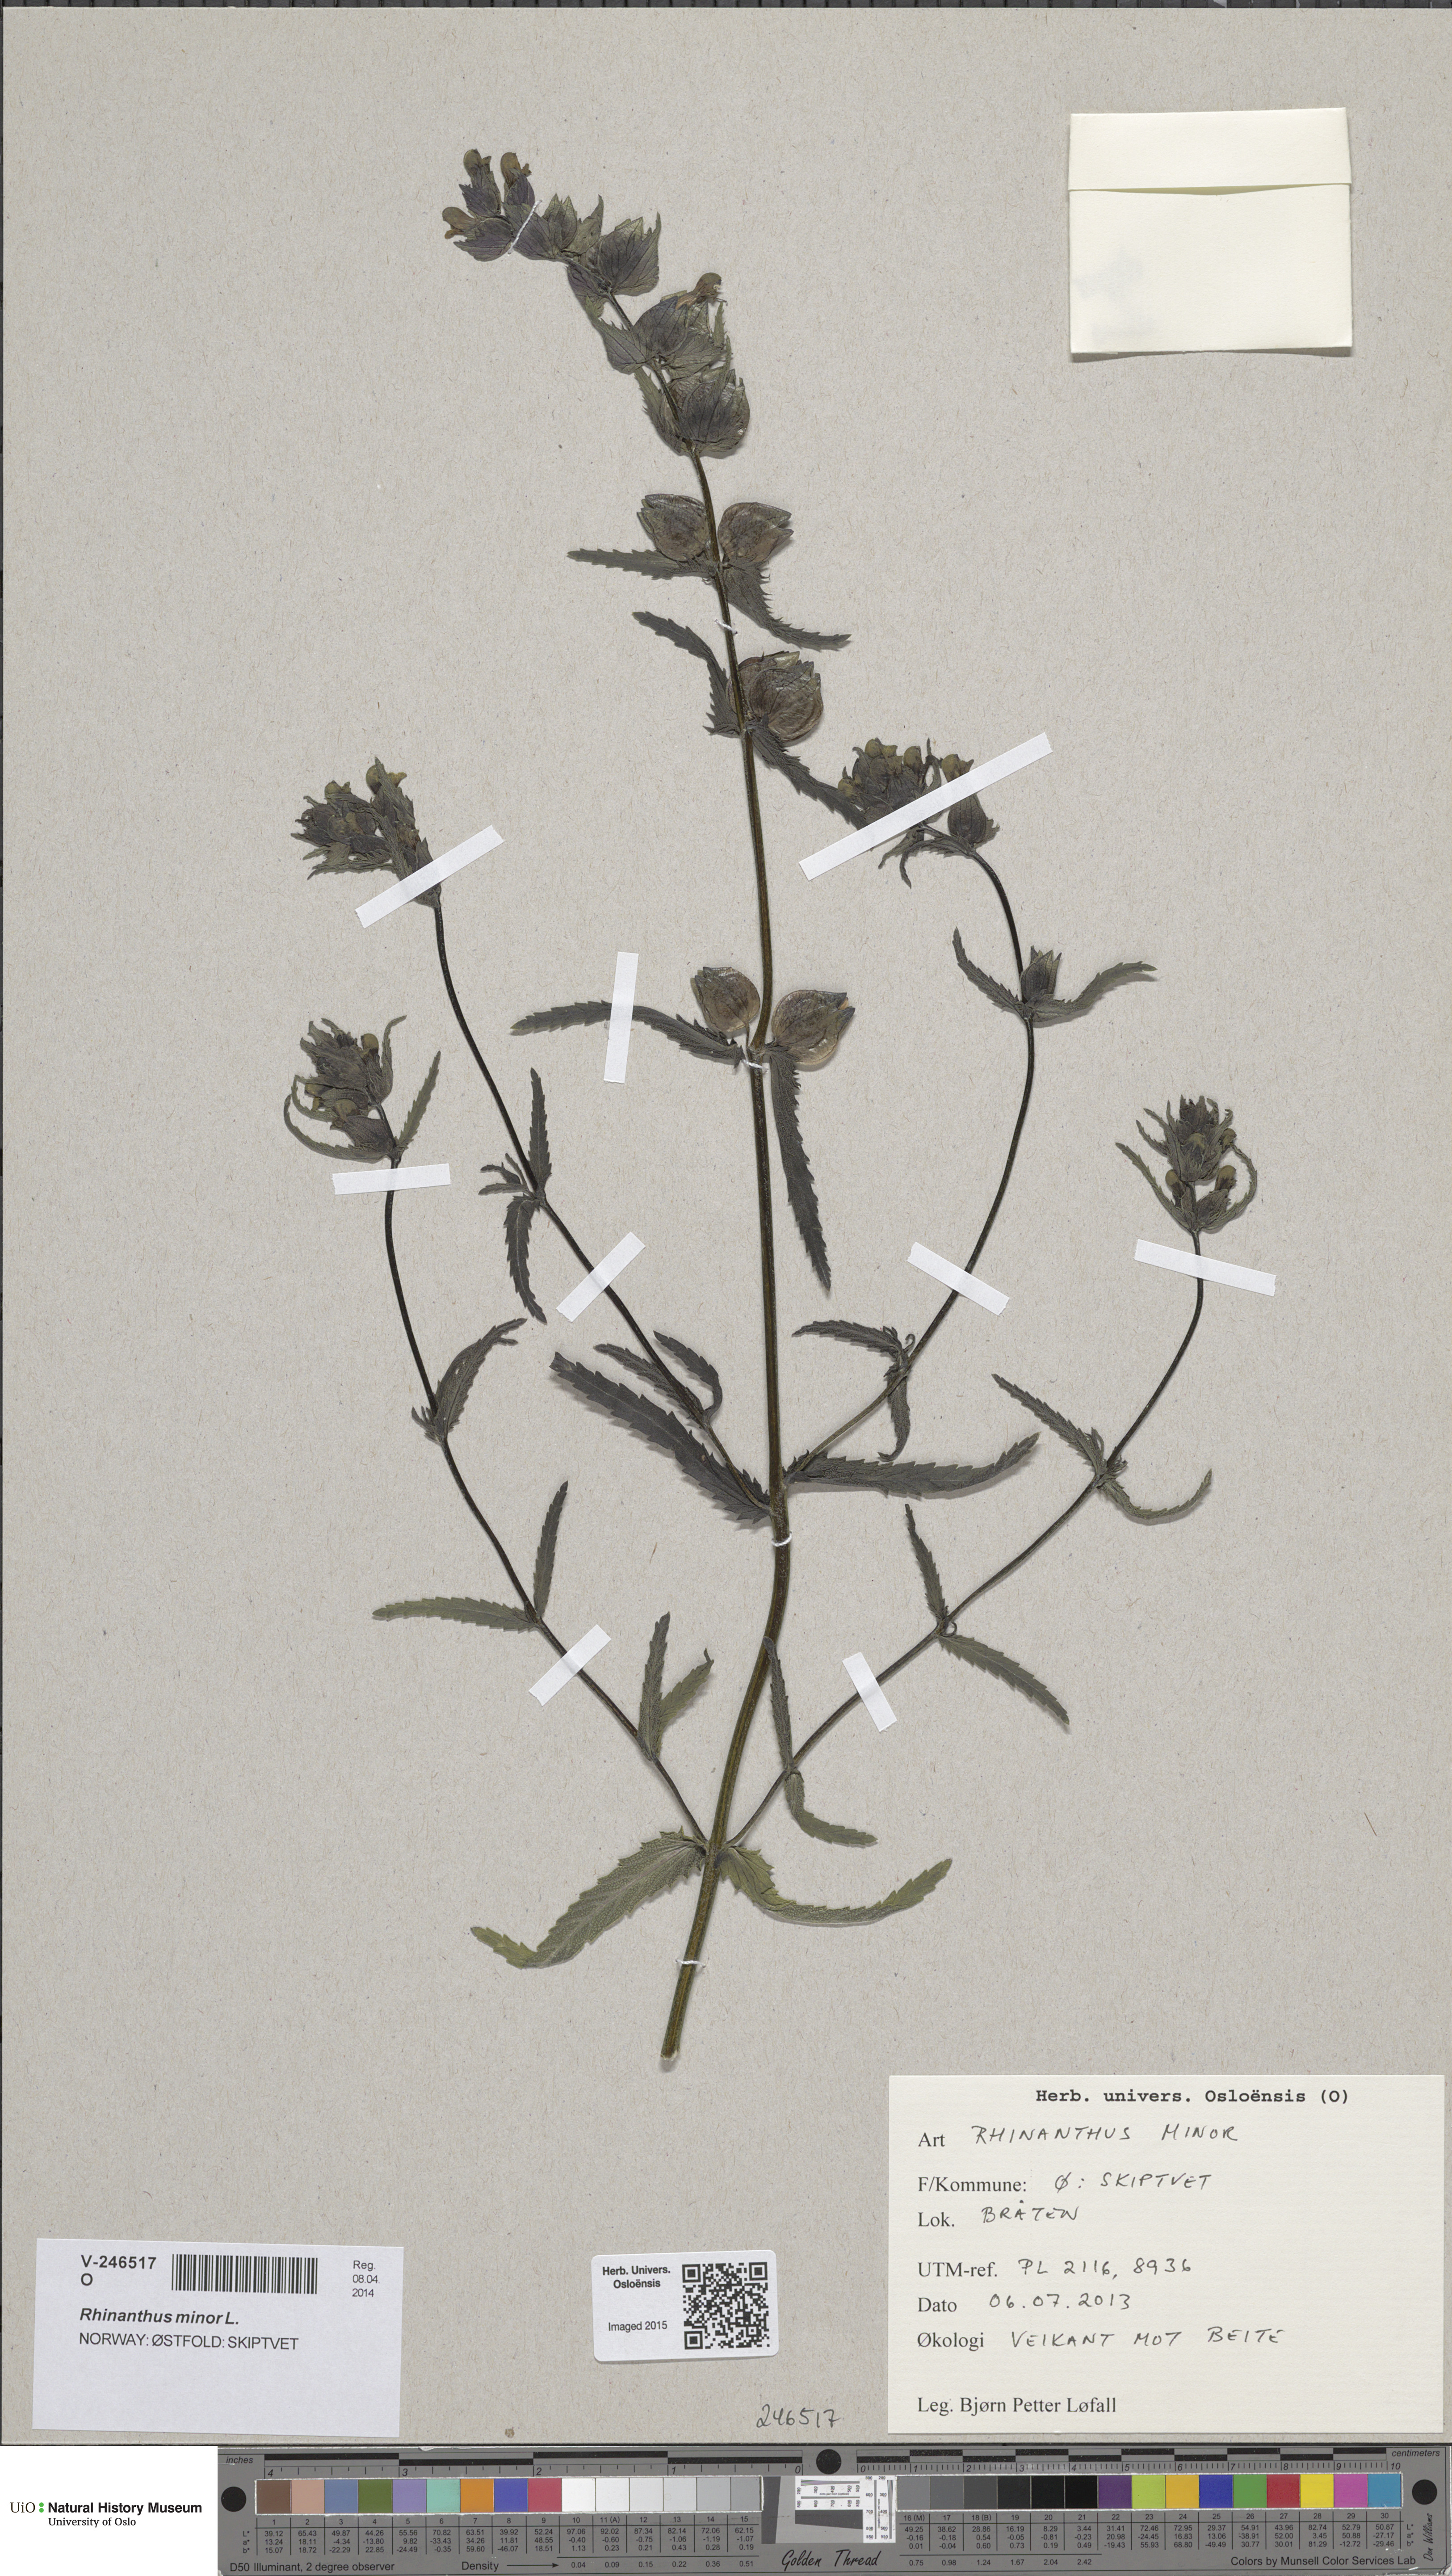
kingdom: Plantae
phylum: Tracheophyta
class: Magnoliopsida
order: Lamiales
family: Orobanchaceae
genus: Rhinanthus
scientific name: Rhinanthus minor
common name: Yellow-rattle
